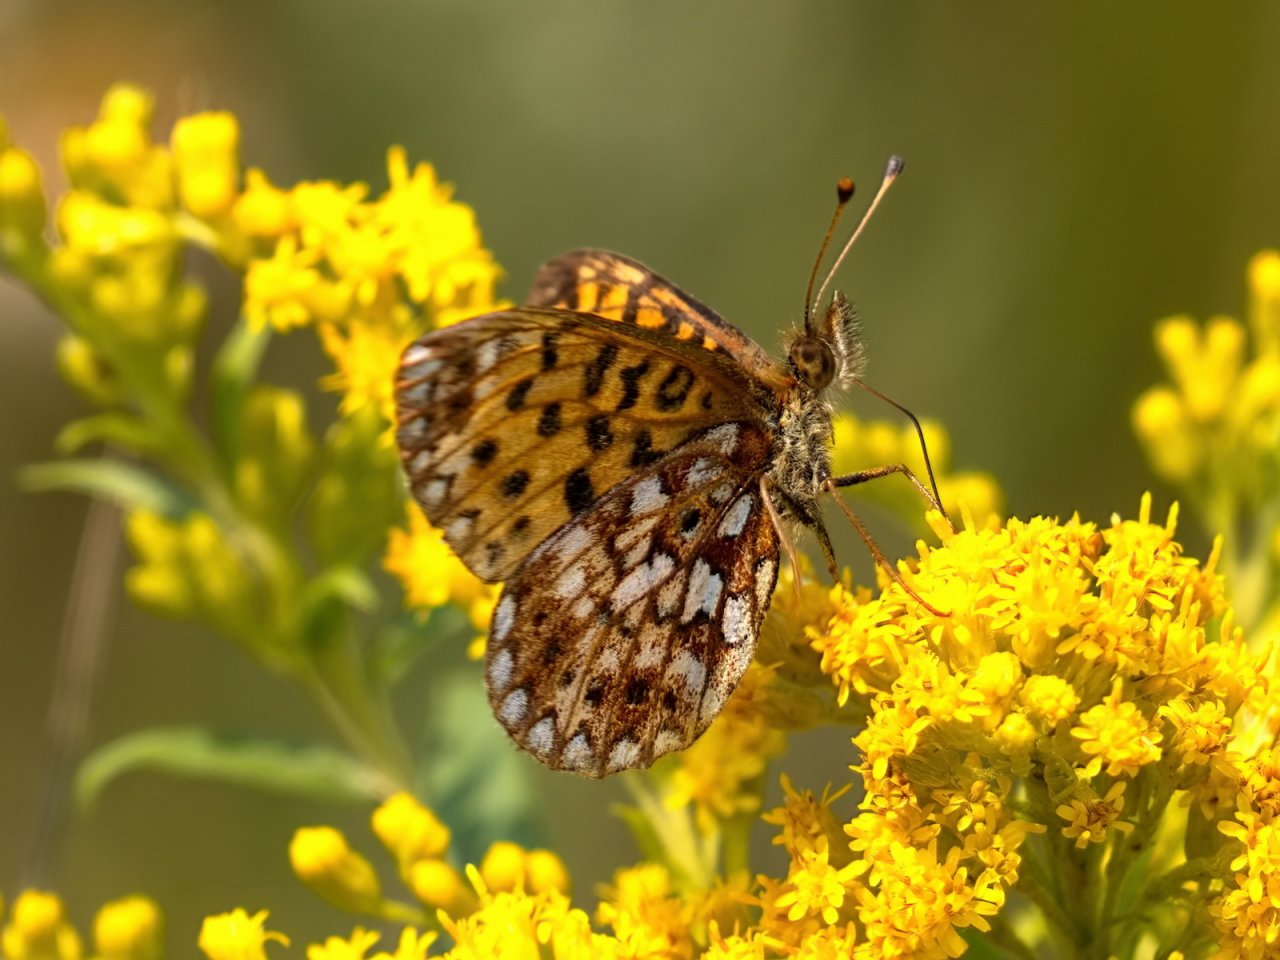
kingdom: Animalia
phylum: Arthropoda
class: Insecta
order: Lepidoptera
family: Nymphalidae
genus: Boloria
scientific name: Boloria selene
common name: Silver-bordered Fritillary
